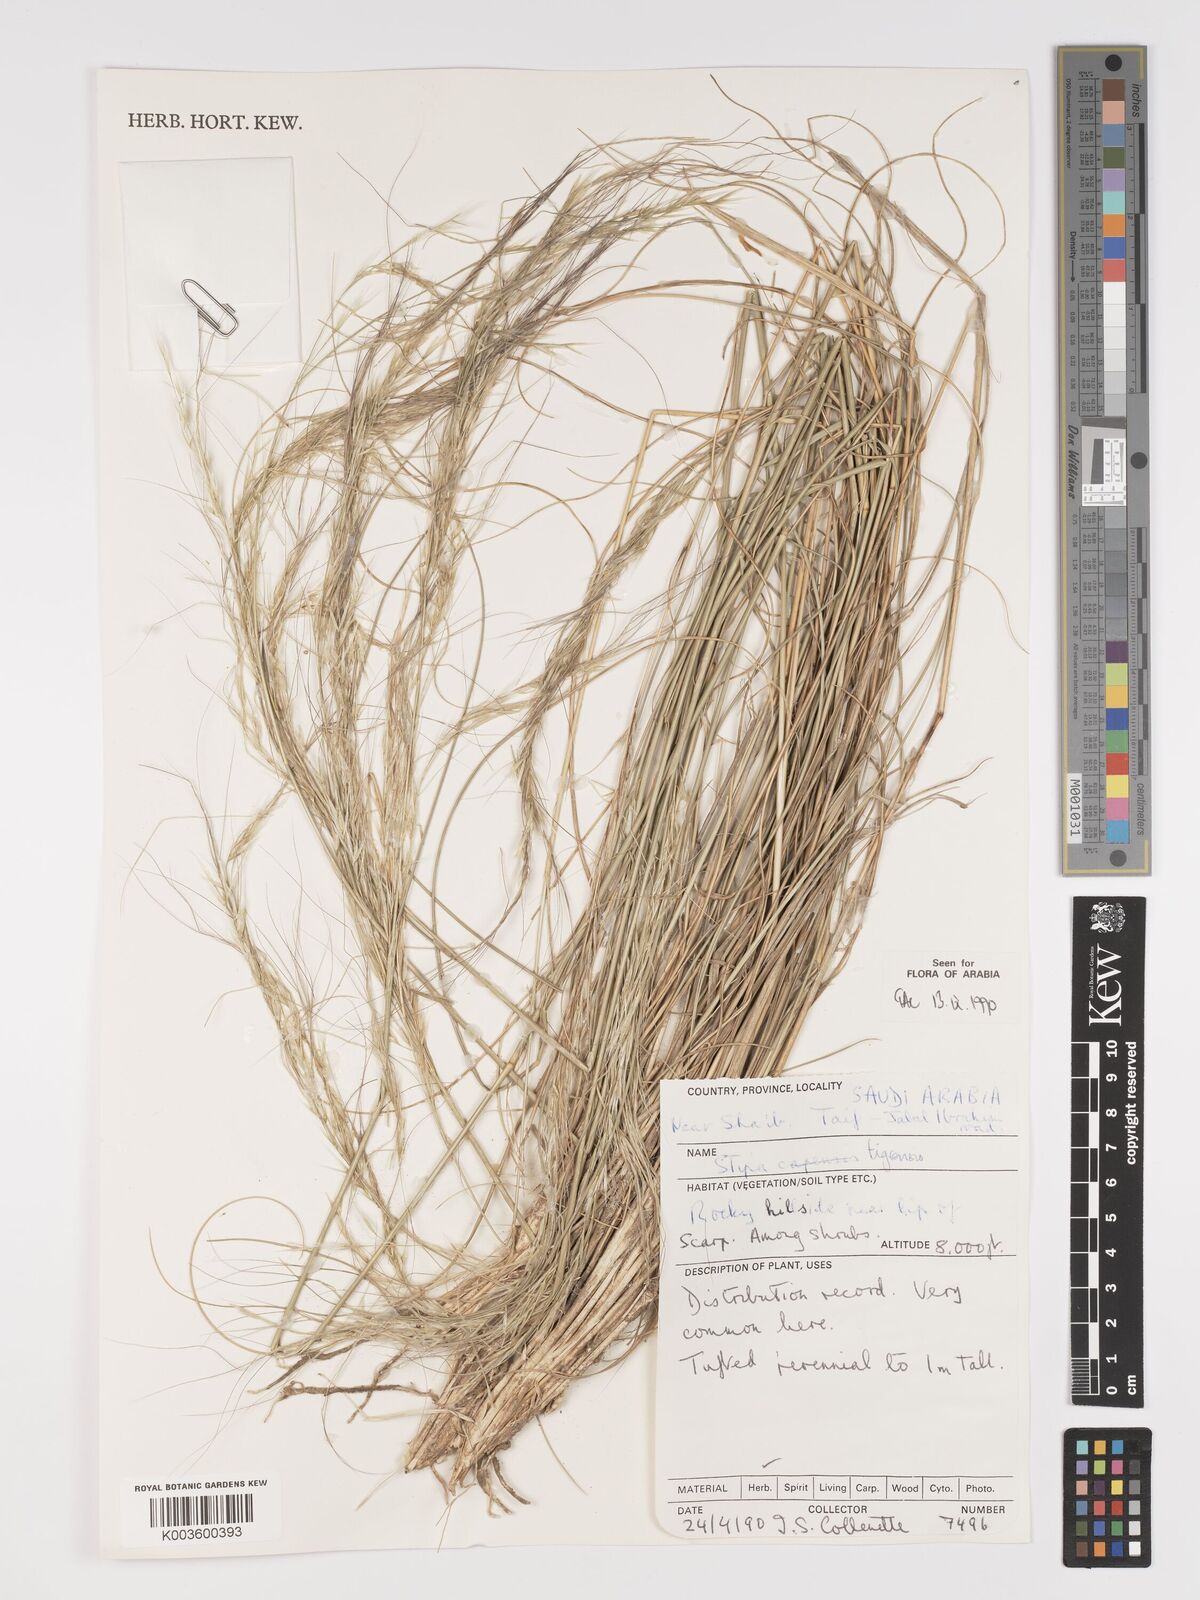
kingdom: Plantae
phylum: Tracheophyta
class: Liliopsida
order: Poales
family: Poaceae
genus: Stipa
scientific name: Stipa tigrensis
